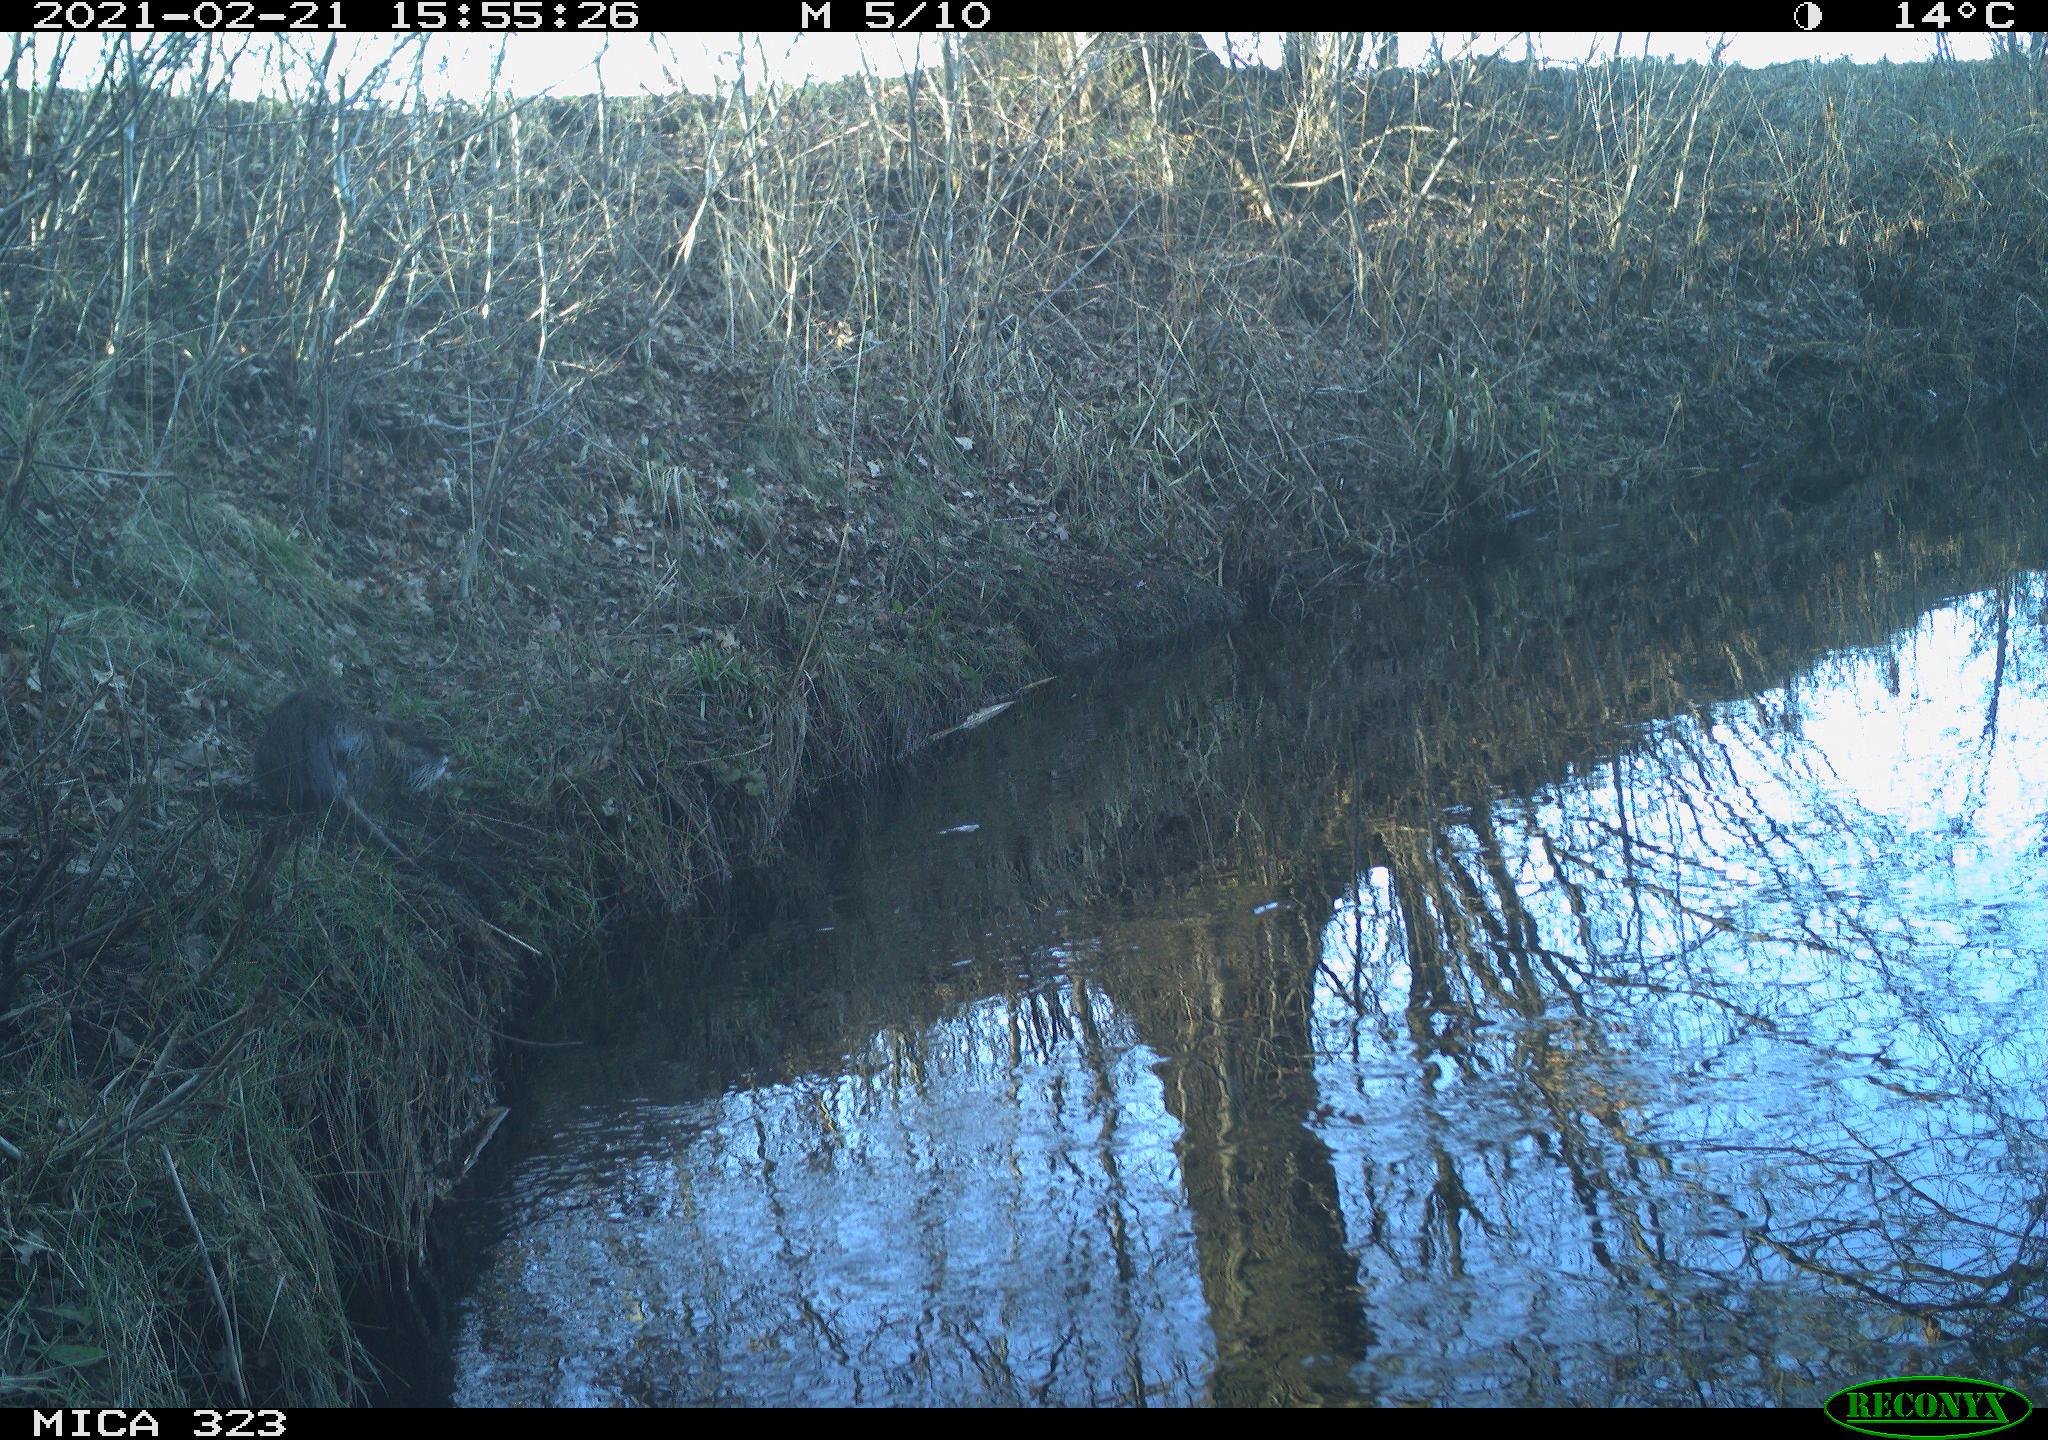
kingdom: Animalia
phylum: Chordata
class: Mammalia
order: Rodentia
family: Myocastoridae
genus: Myocastor
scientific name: Myocastor coypus
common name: Coypu
